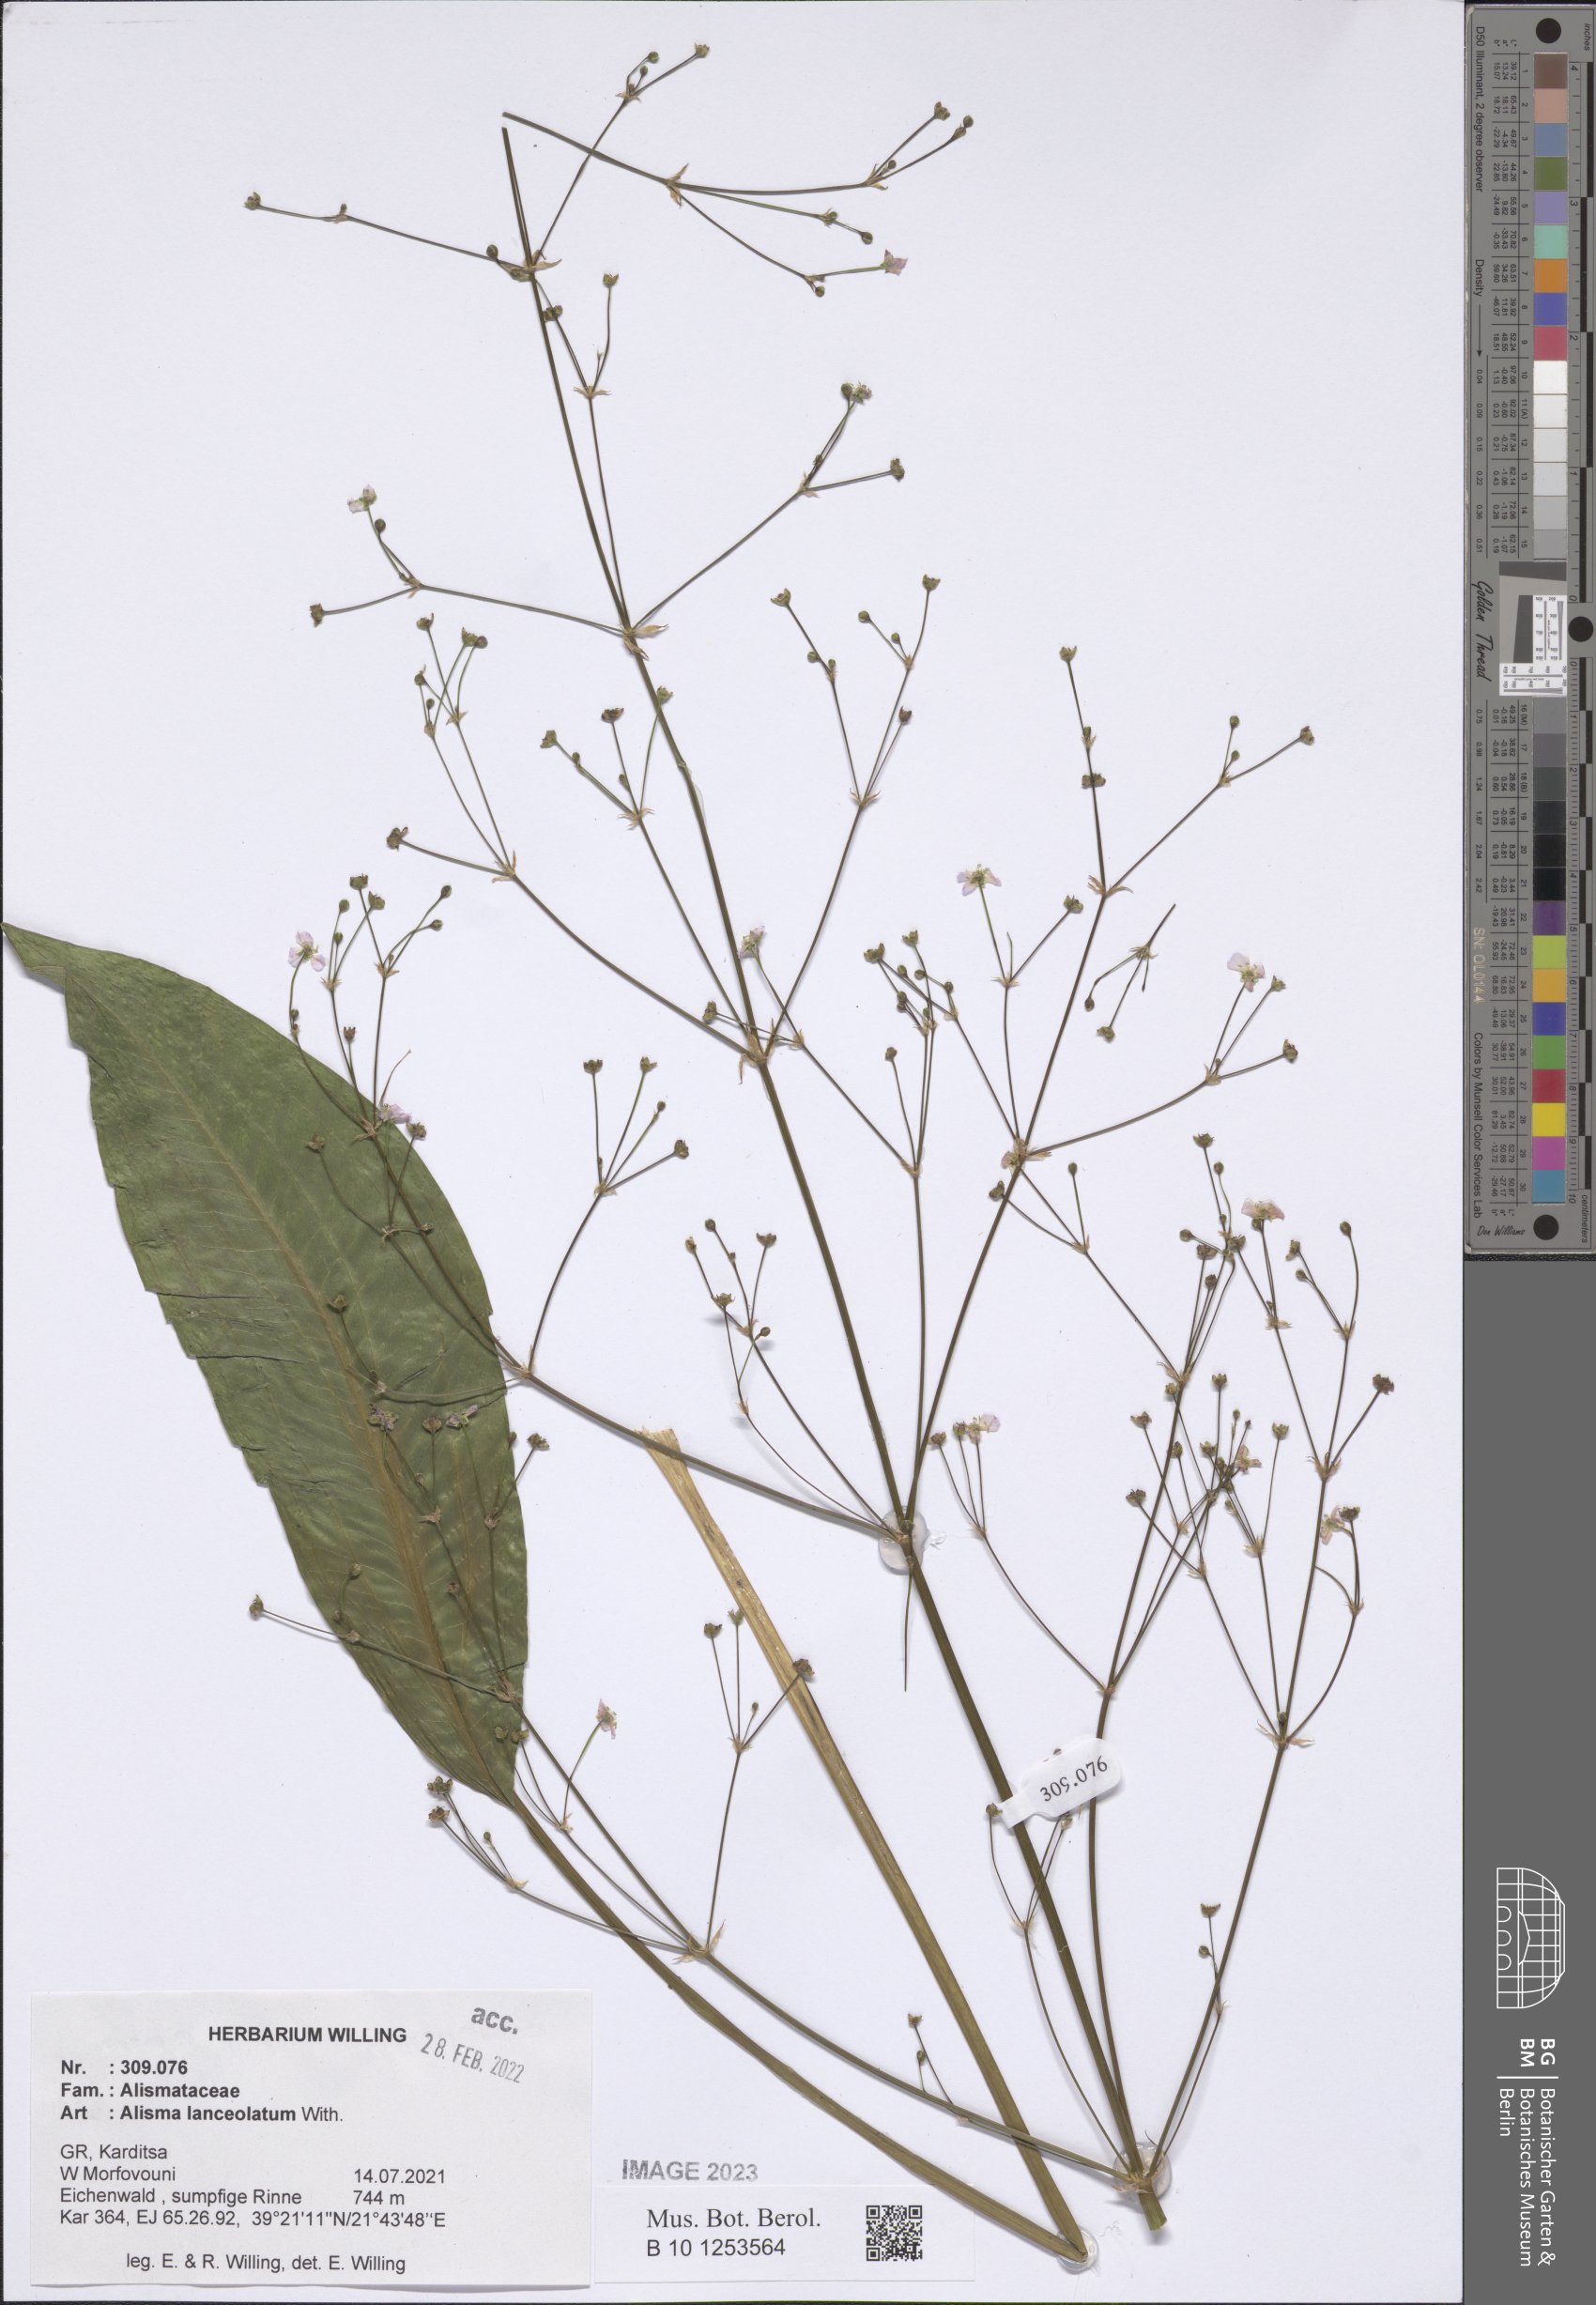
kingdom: Plantae
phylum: Tracheophyta
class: Liliopsida
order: Alismatales
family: Alismataceae
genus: Alisma
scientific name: Alisma lanceolatum
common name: Narrow-leaved water-plantain
